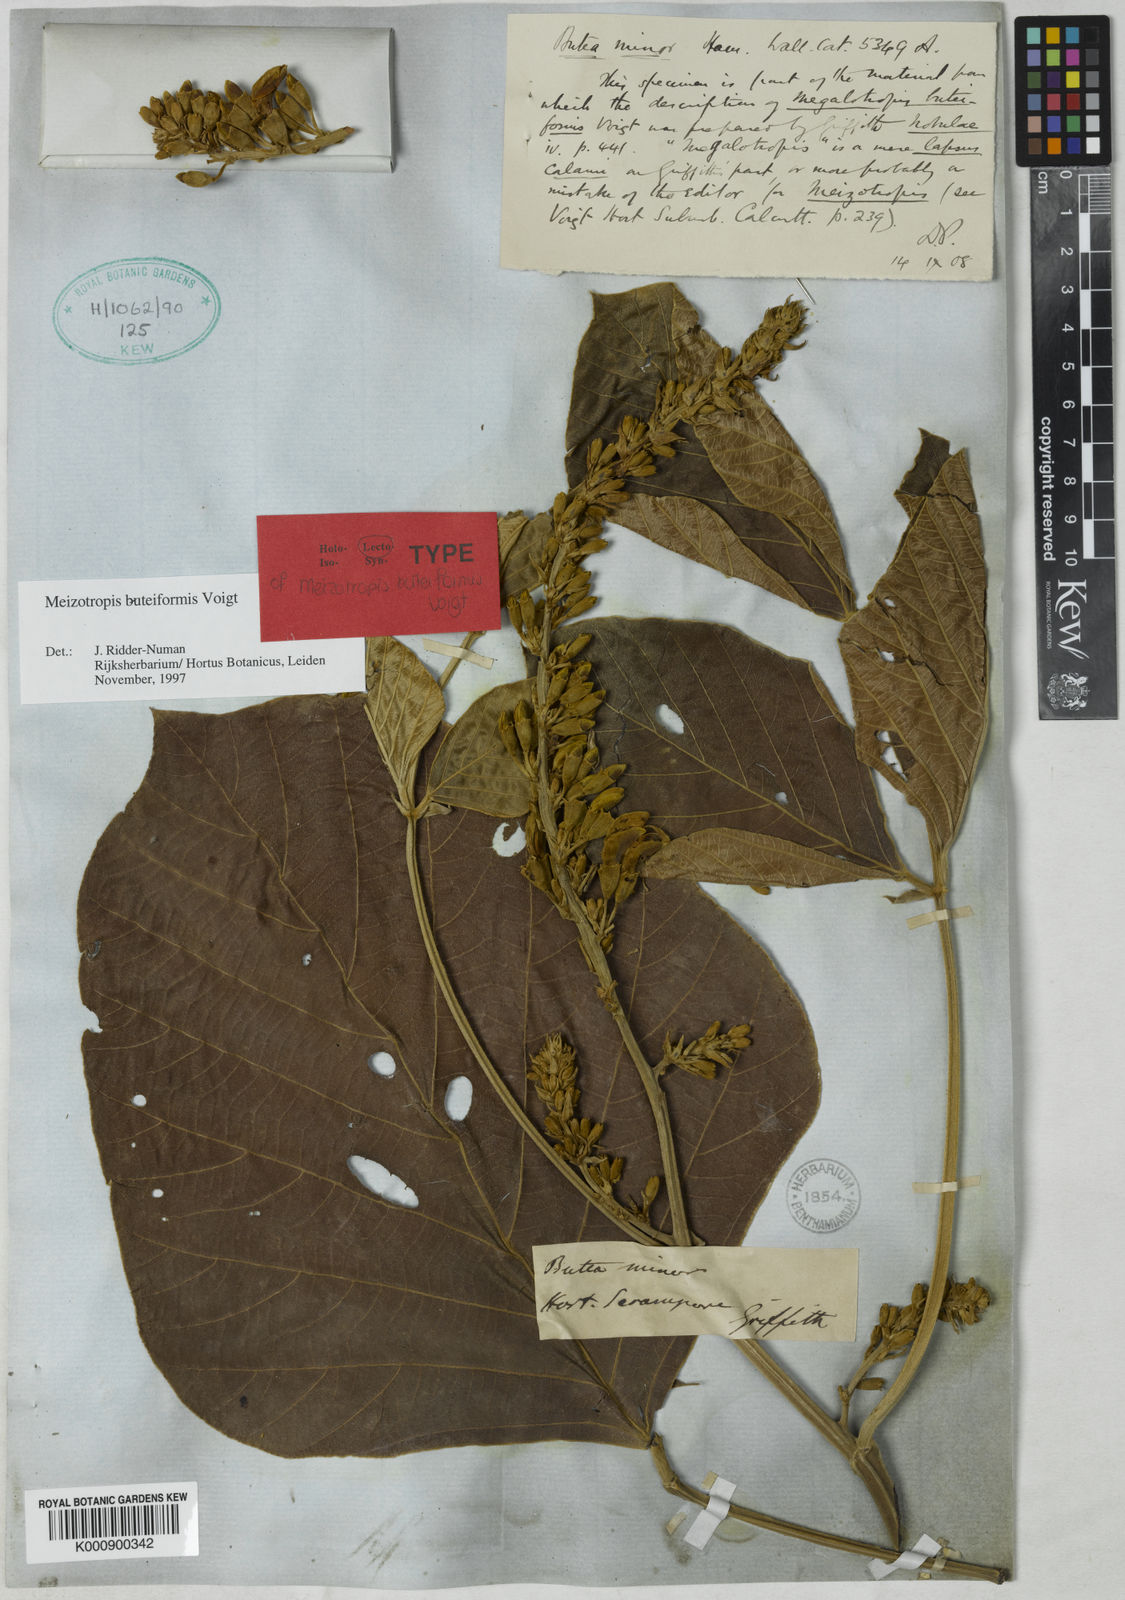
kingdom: Plantae
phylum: Tracheophyta
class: Magnoliopsida
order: Fabales
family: Fabaceae
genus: Butea
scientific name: Butea buteiformis
